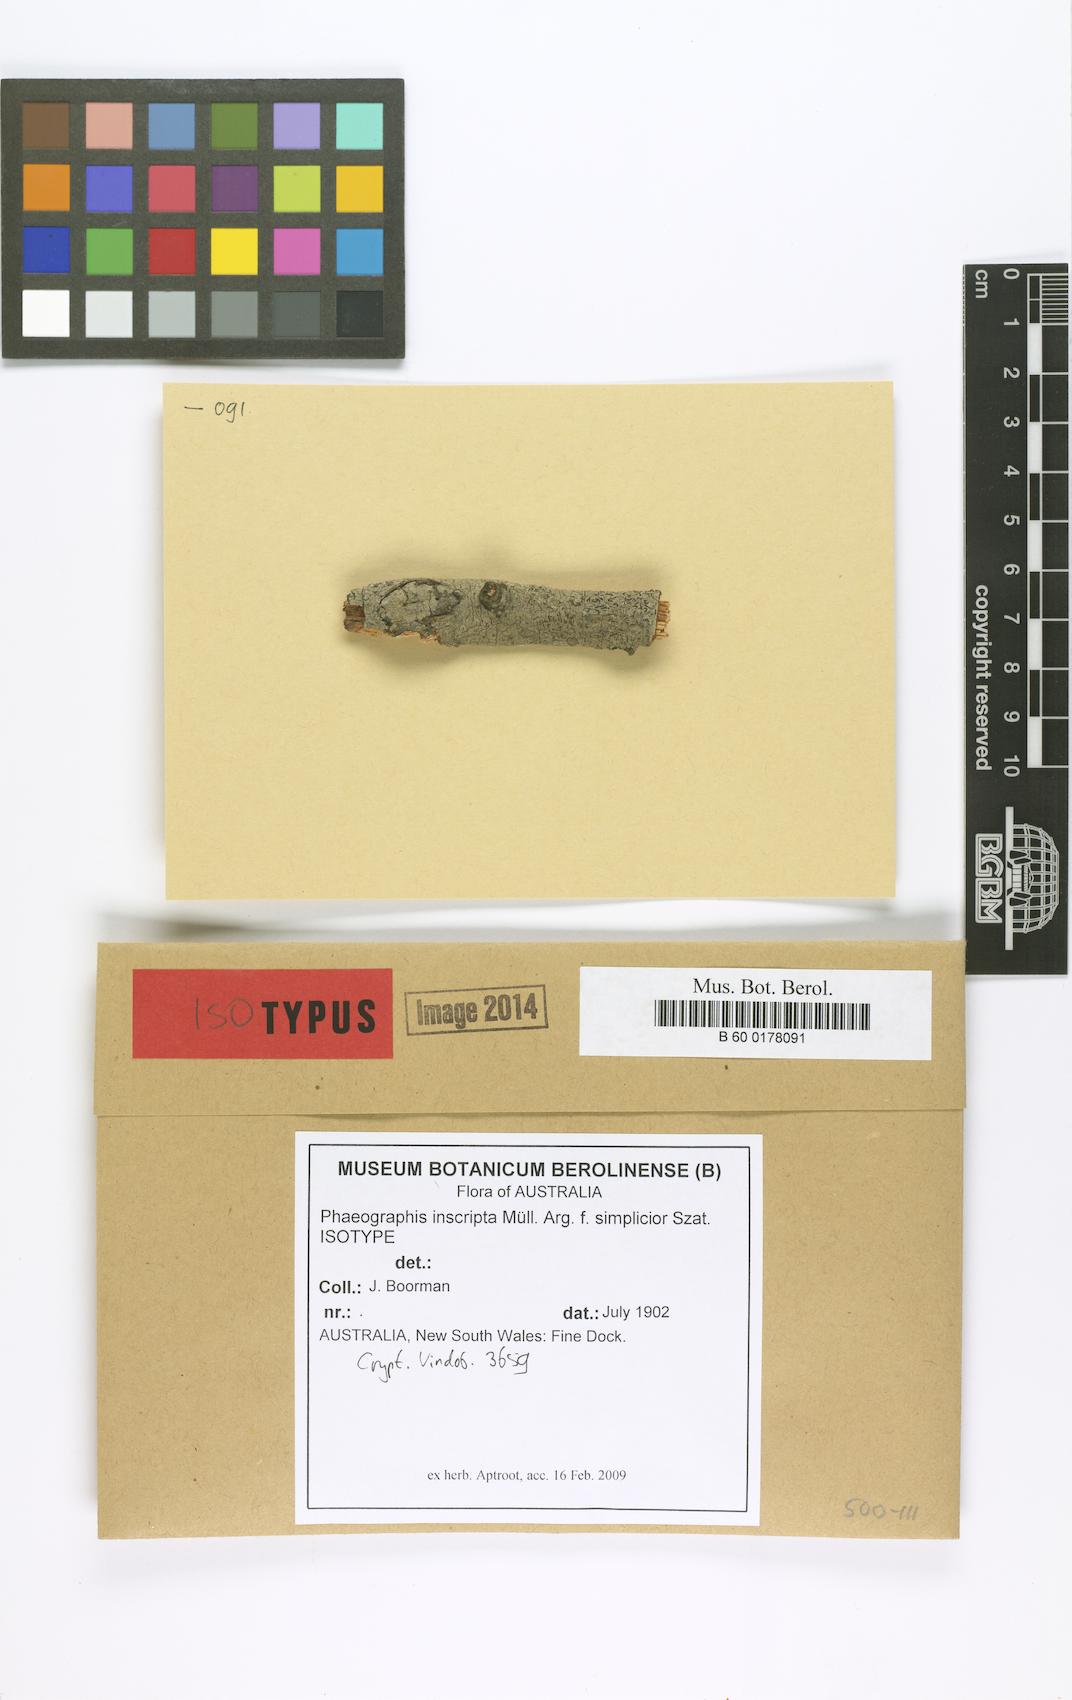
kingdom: Fungi
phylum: Ascomycota
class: Lecanoromycetes
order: Ostropales
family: Graphidaceae
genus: Halegrapha
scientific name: Halegrapha mucronata
